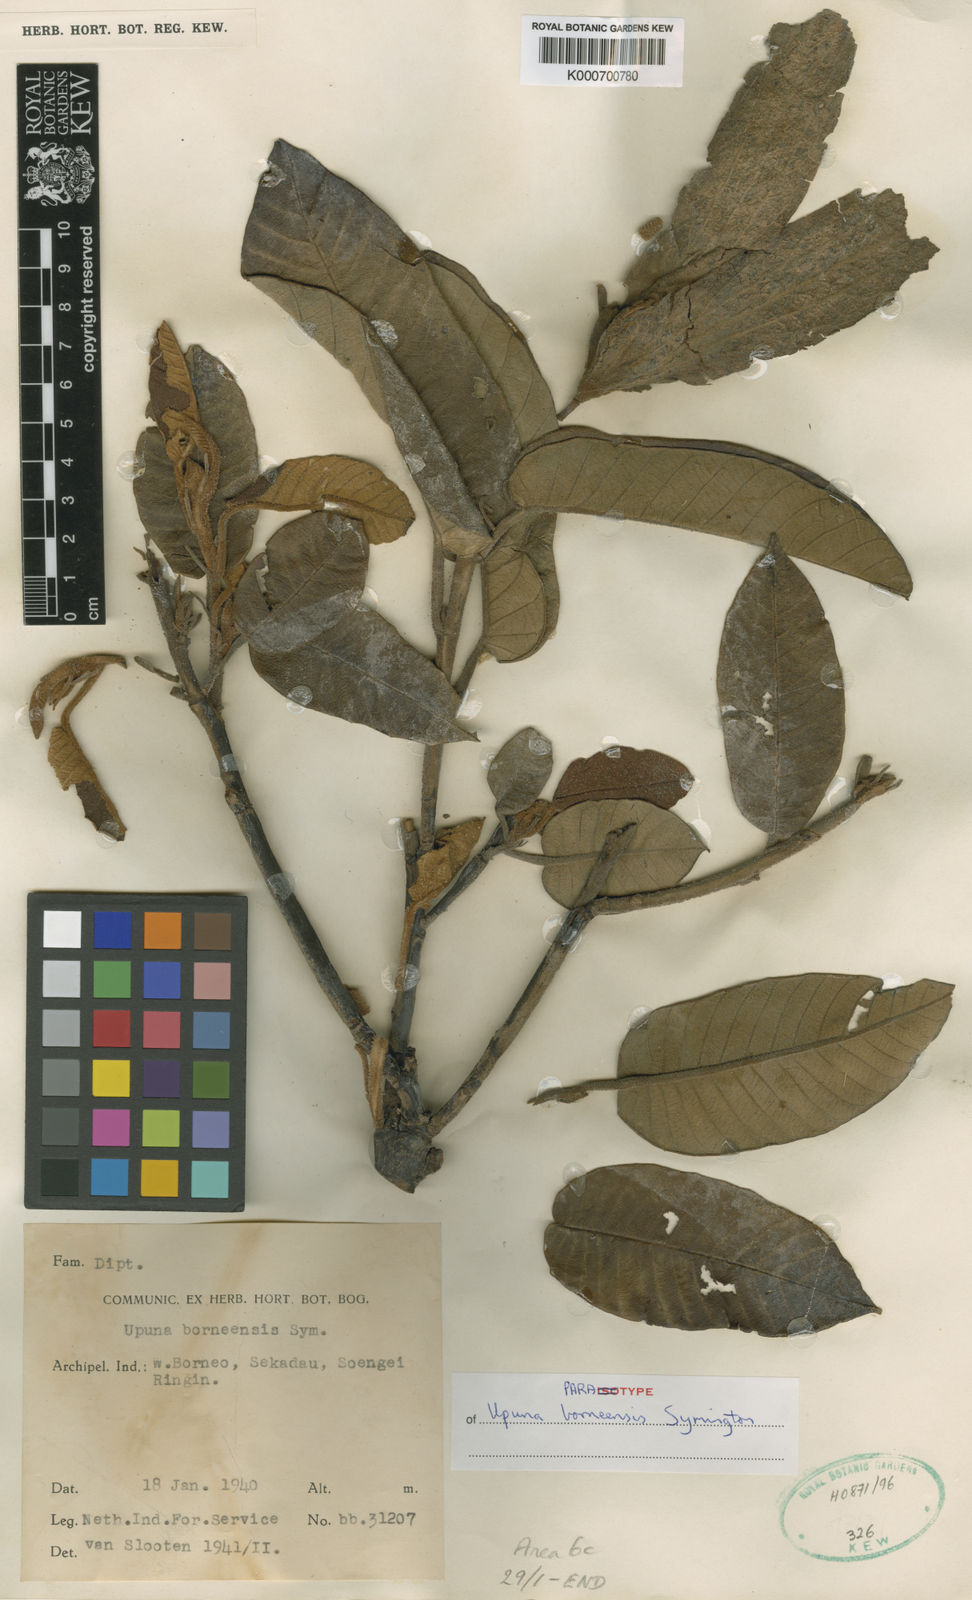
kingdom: Plantae
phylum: Tracheophyta
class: Magnoliopsida
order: Malvales
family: Dipterocarpaceae
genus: Upuna
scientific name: Upuna borneensis
